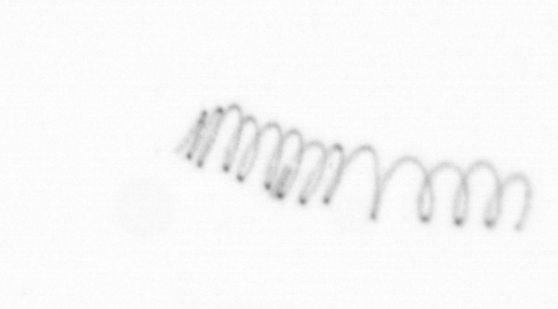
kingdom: Chromista
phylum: Ochrophyta
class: Bacillariophyceae
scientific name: Bacillariophyceae
